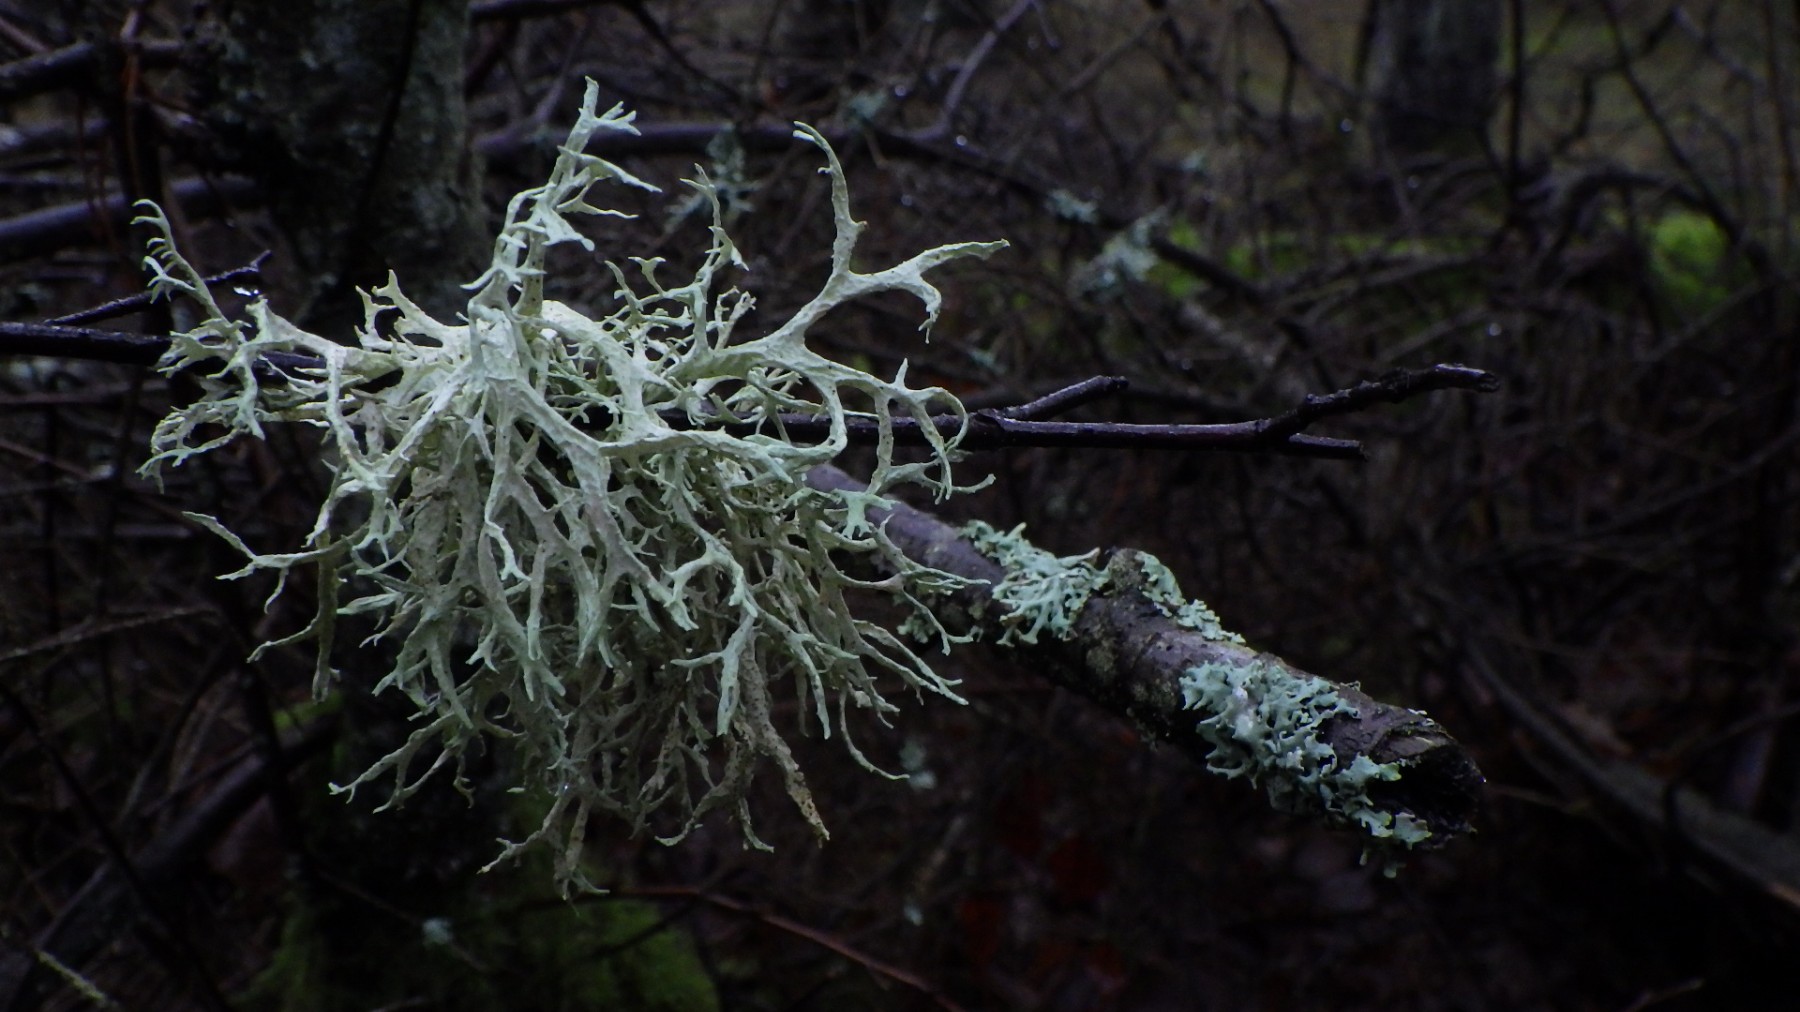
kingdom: Fungi
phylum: Ascomycota
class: Lecanoromycetes
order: Lecanorales
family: Parmeliaceae
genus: Evernia
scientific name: Evernia prunastri
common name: almindelig slåenlav
